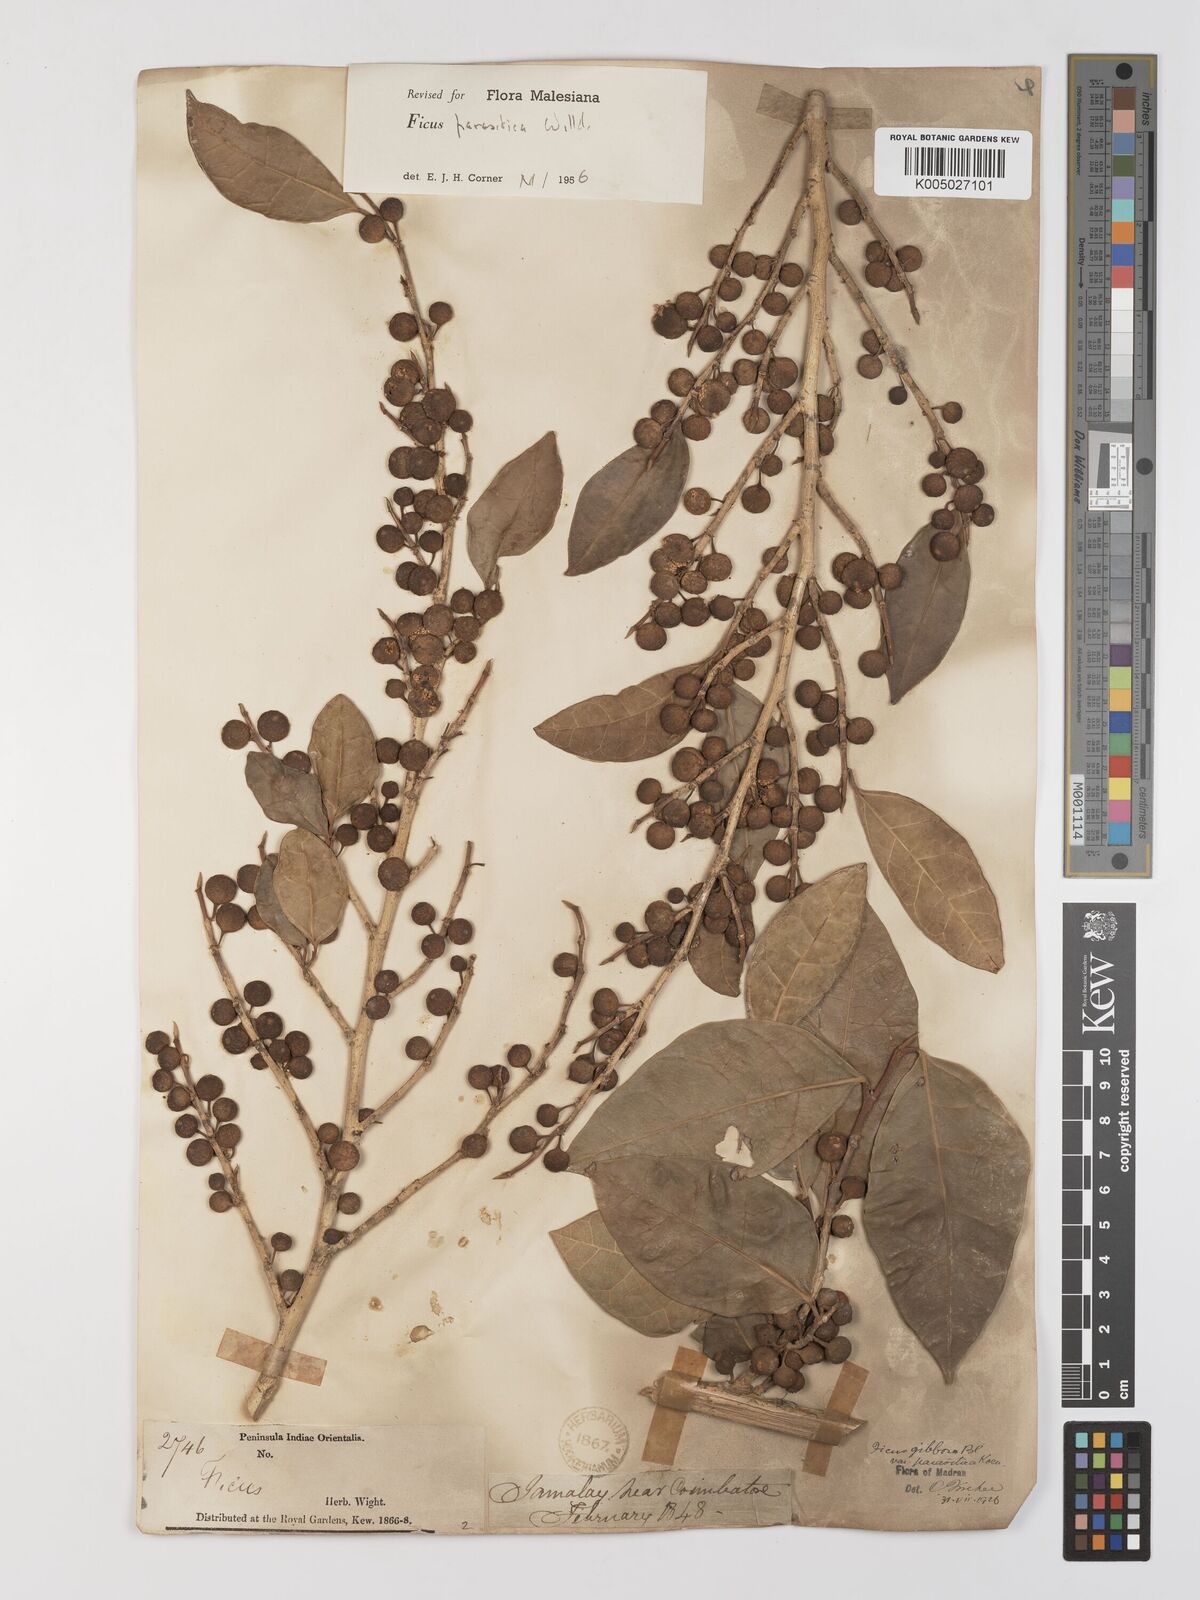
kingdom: Plantae
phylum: Tracheophyta
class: Magnoliopsida
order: Rosales
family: Moraceae
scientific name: Moraceae
